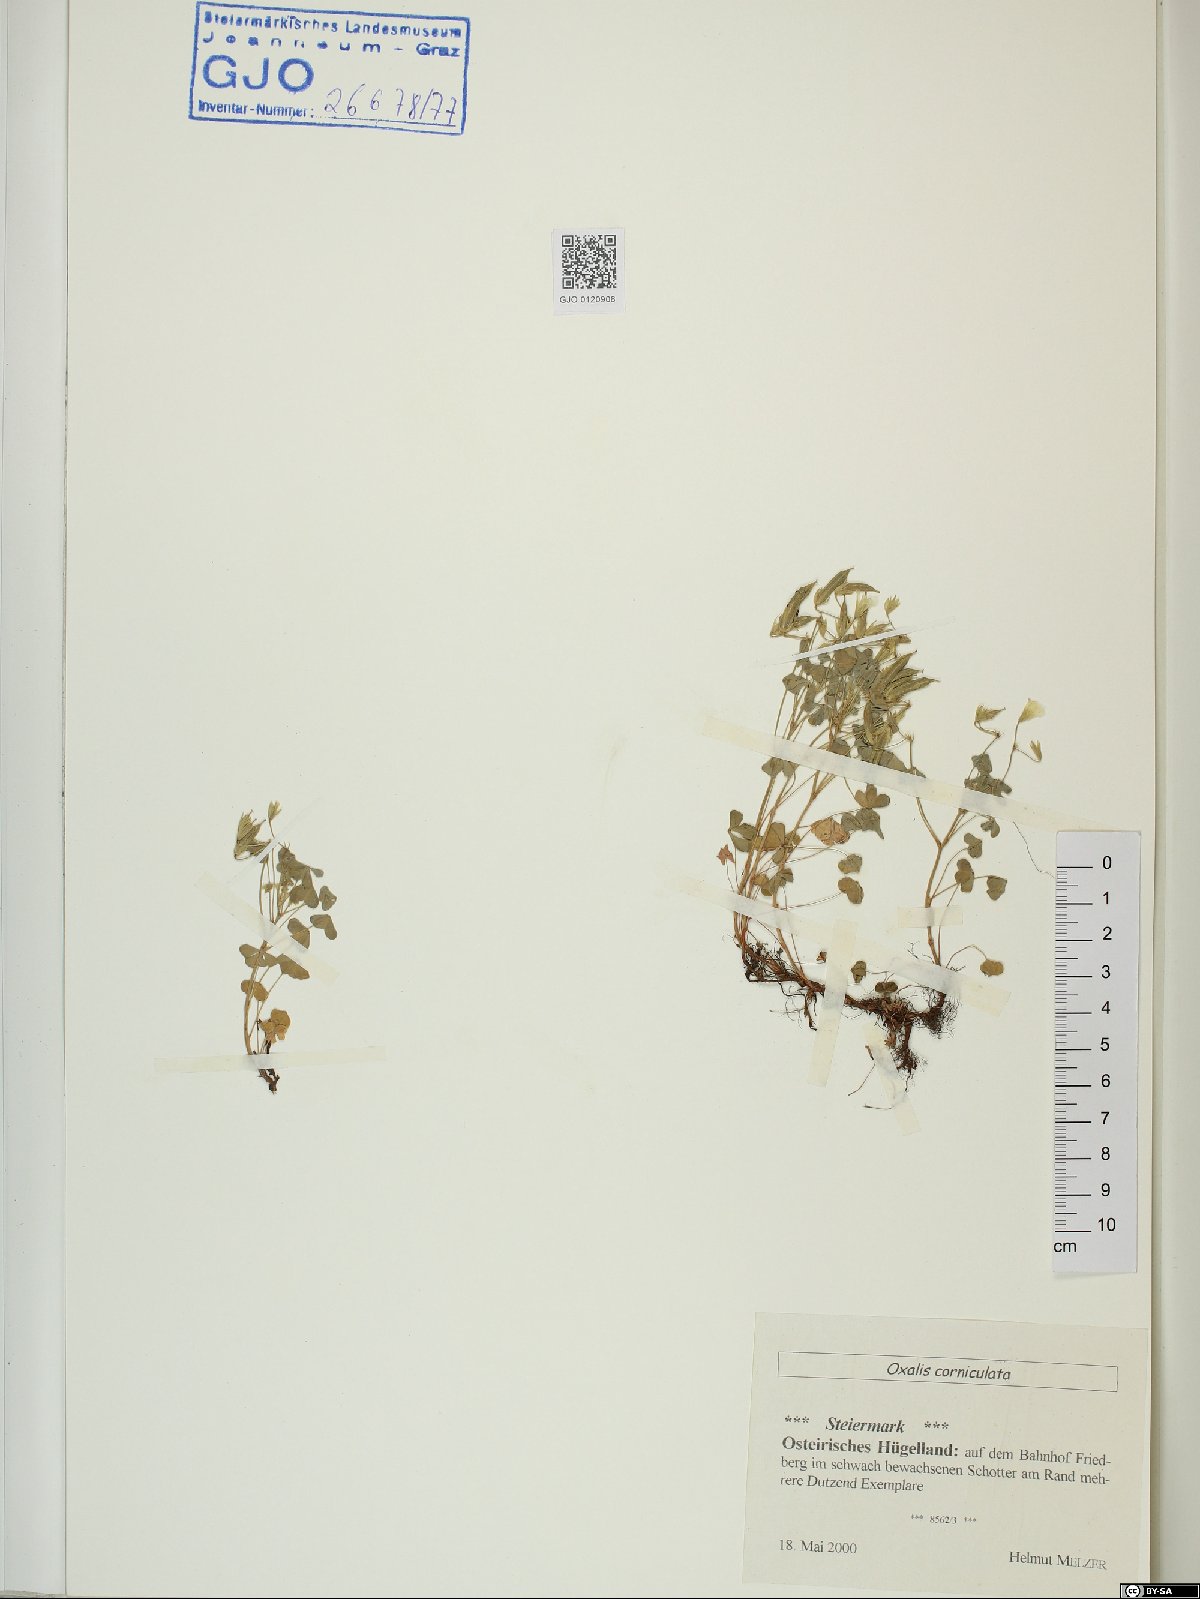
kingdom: Plantae
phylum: Tracheophyta
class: Magnoliopsida
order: Oxalidales
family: Oxalidaceae
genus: Oxalis
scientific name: Oxalis corniculata
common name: Procumbent yellow-sorrel
